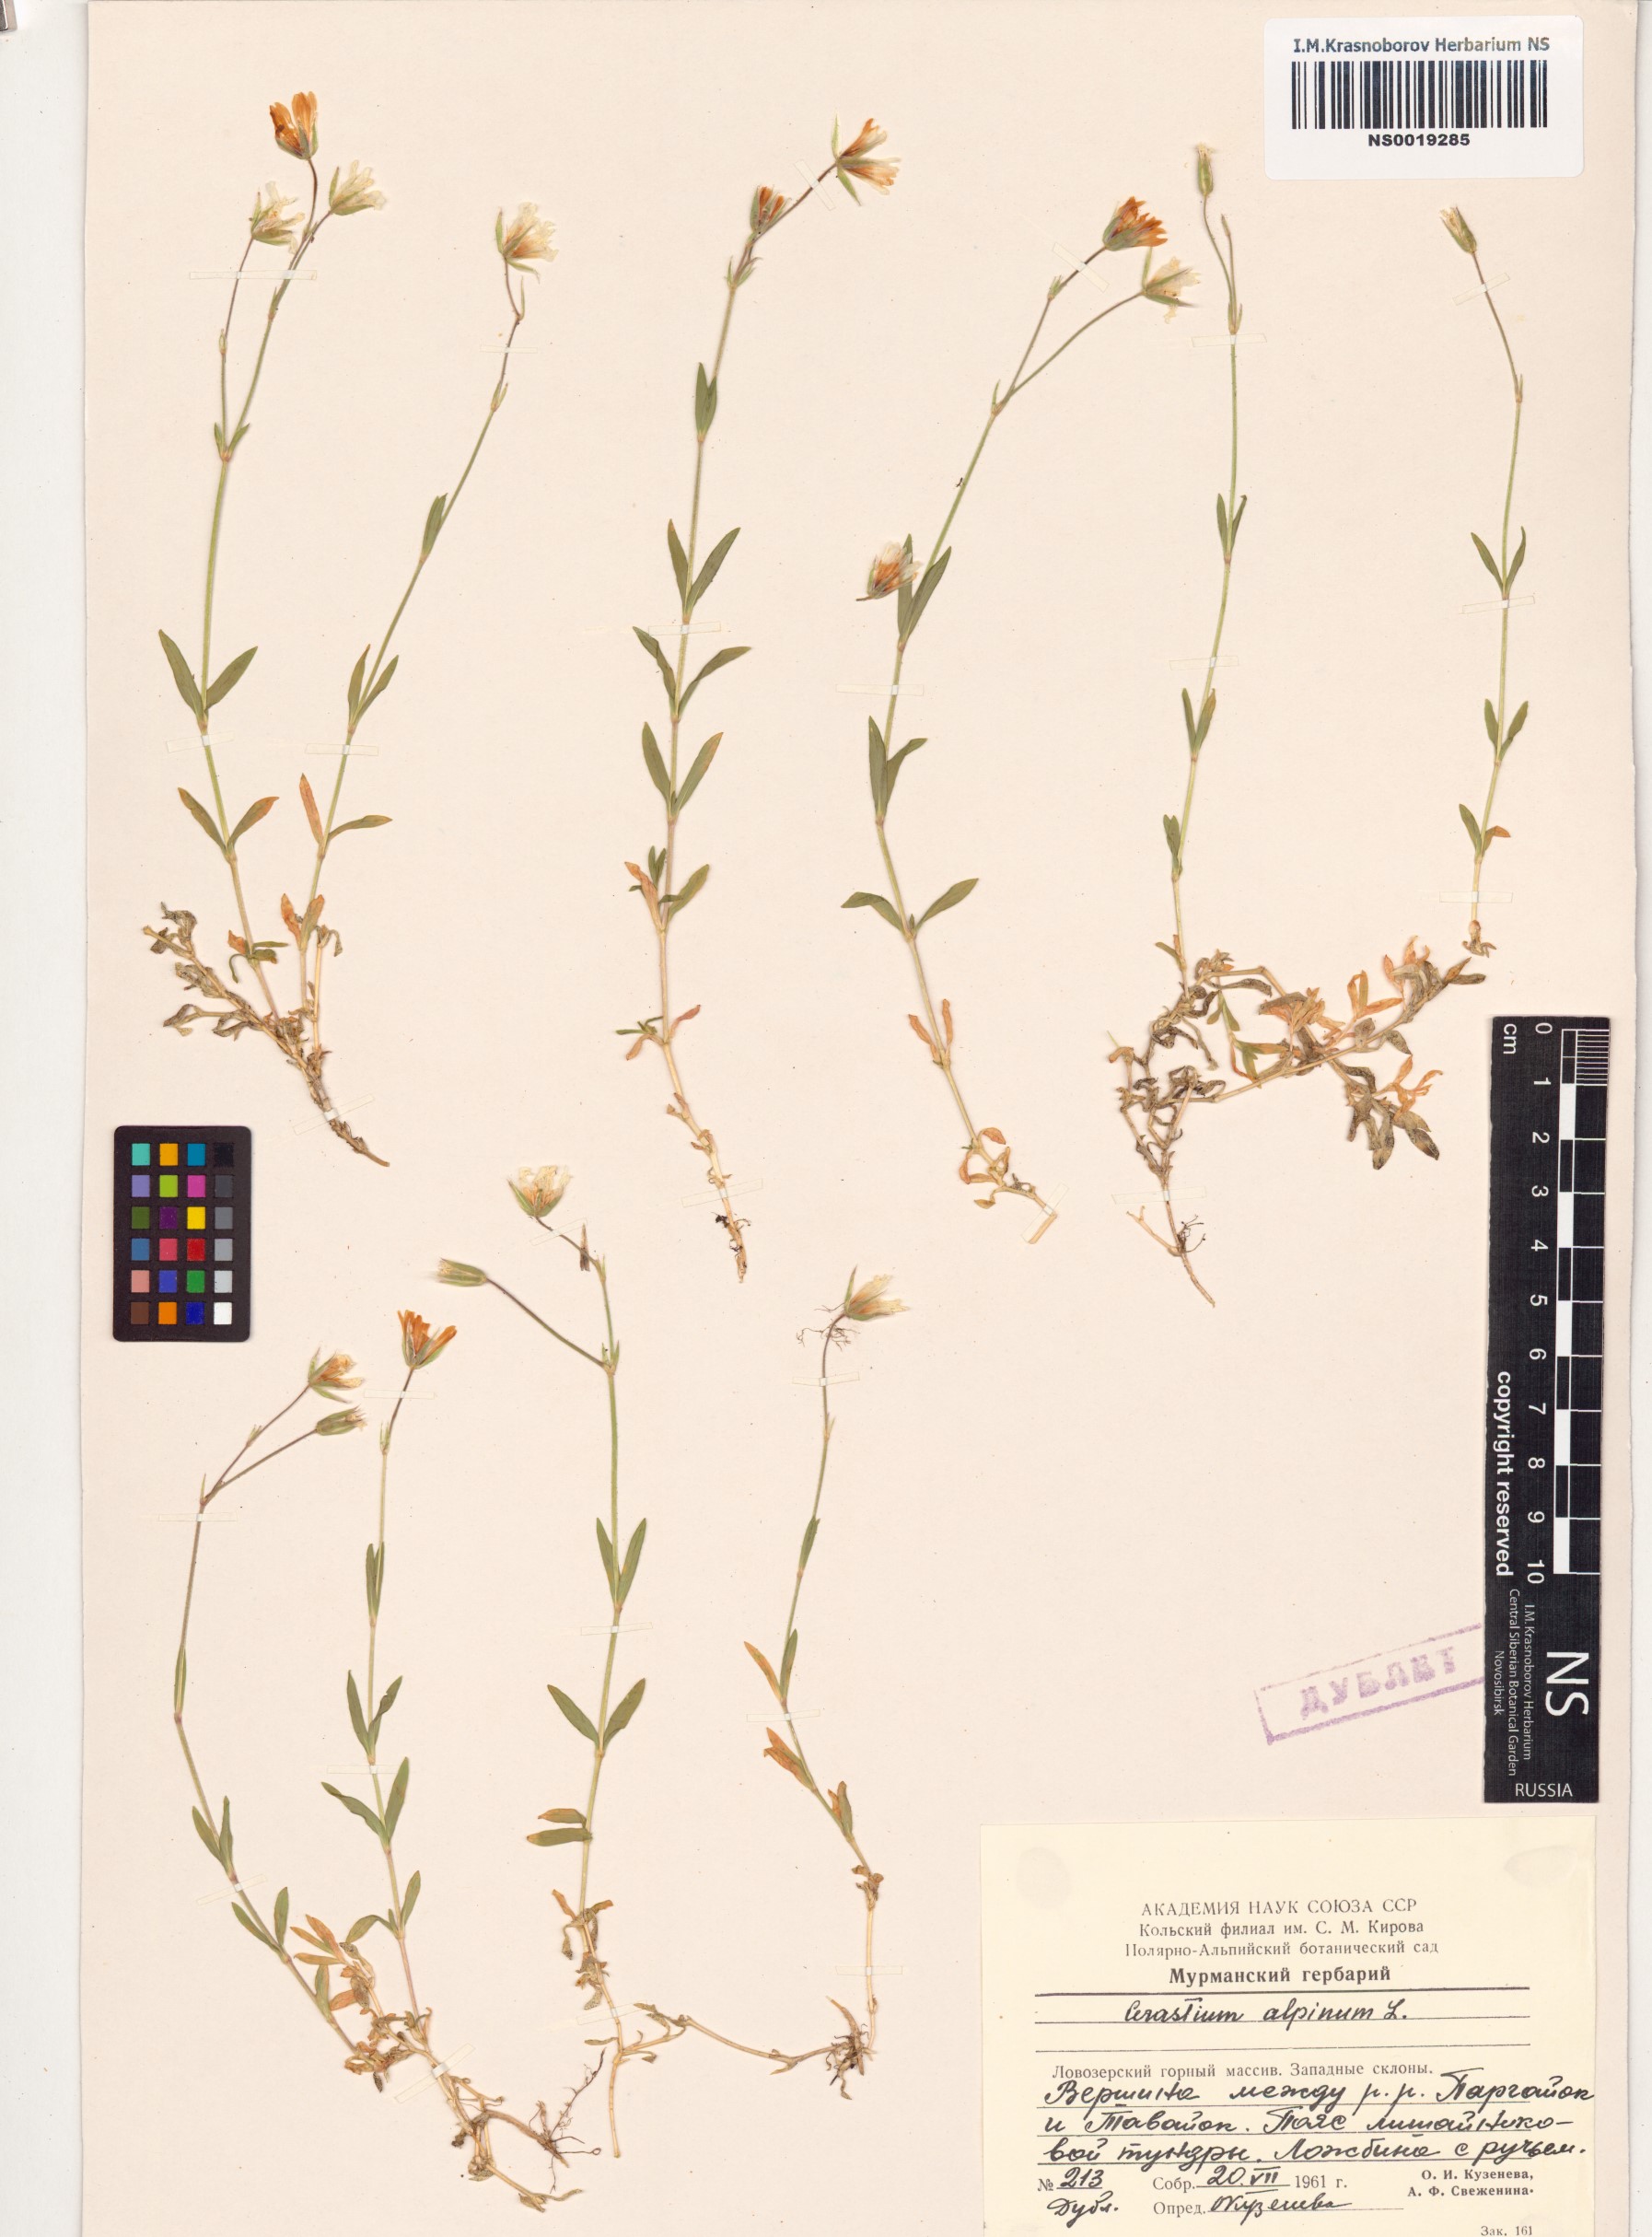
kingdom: Plantae
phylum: Tracheophyta
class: Magnoliopsida
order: Caryophyllales
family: Caryophyllaceae
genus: Cerastium
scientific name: Cerastium alpinum
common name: Alpine mouse-ear
